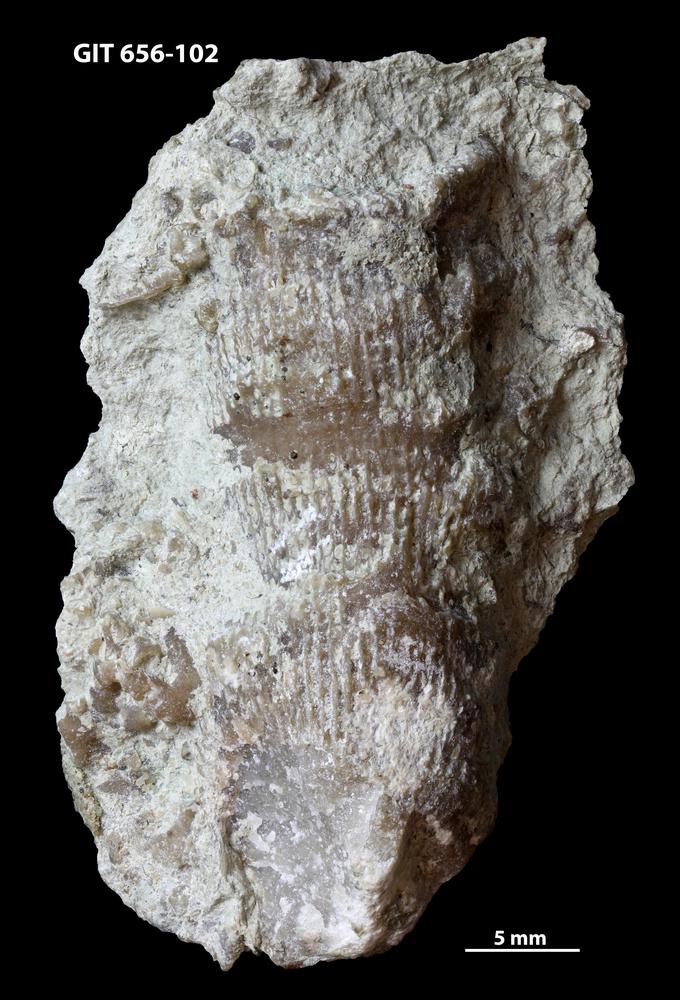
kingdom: Animalia
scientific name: Animalia
